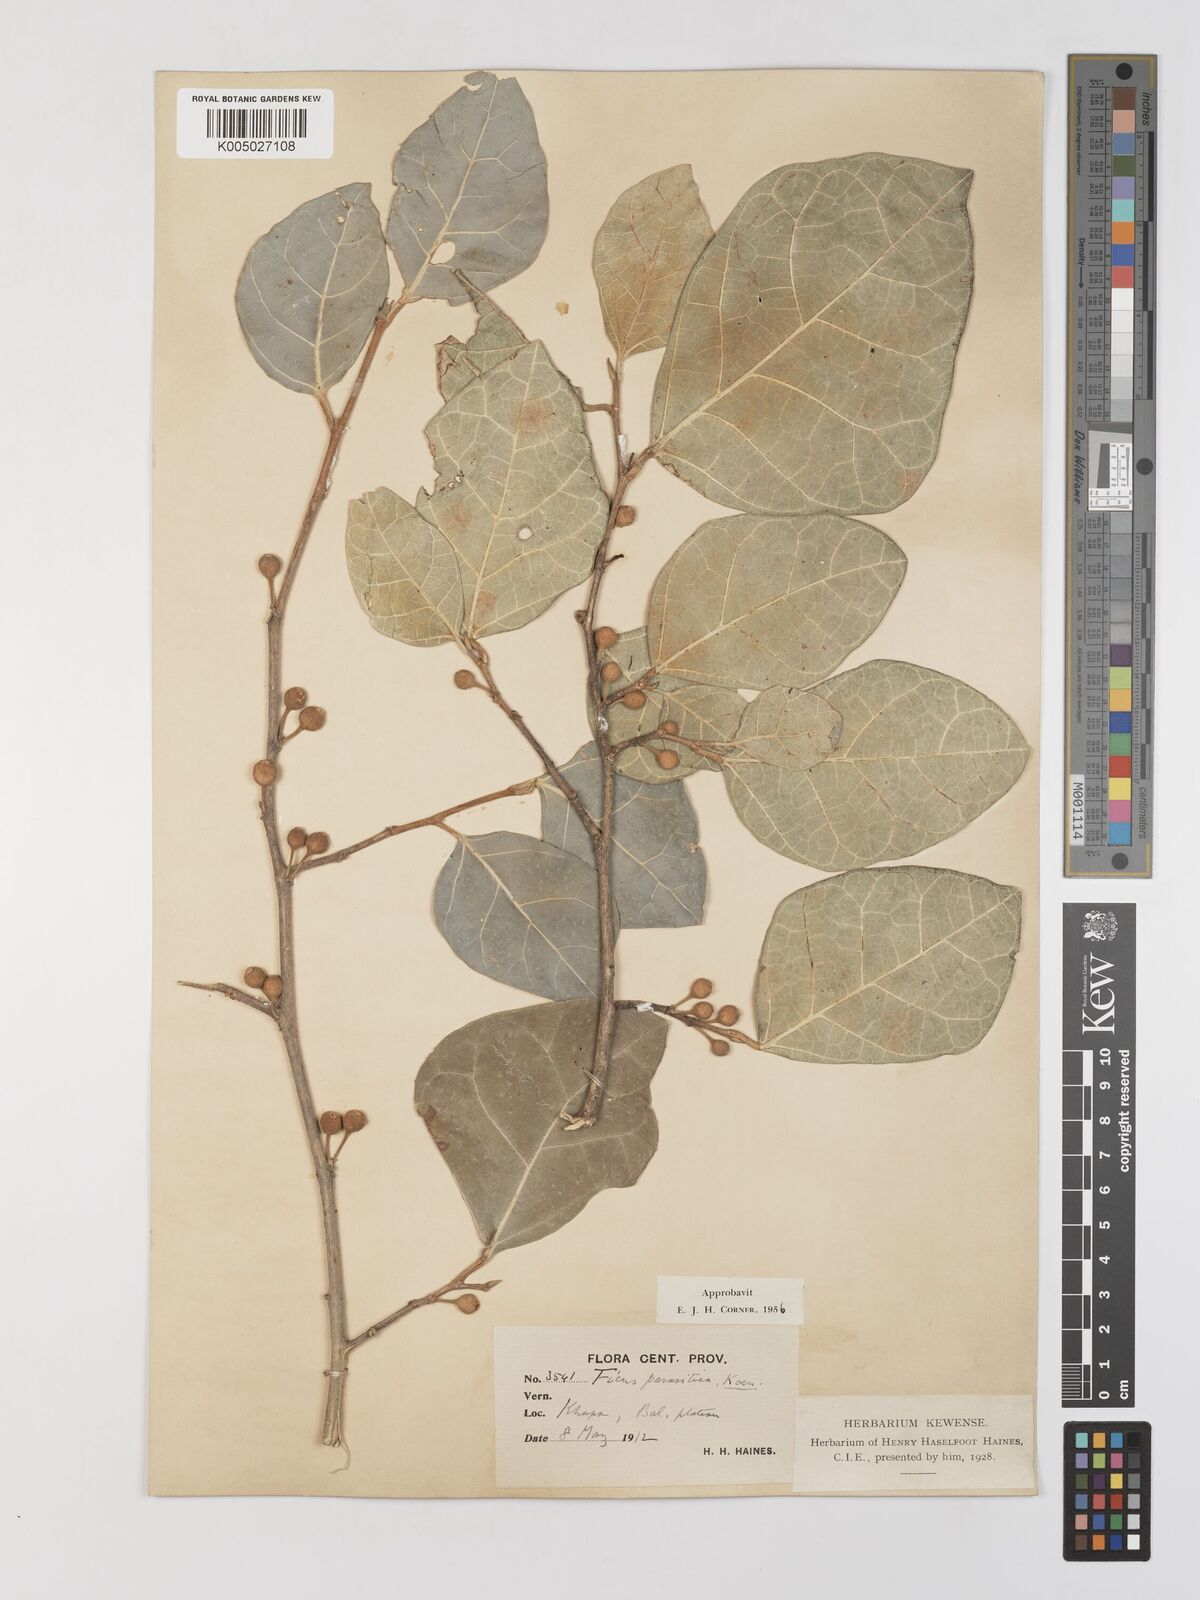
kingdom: Plantae
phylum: Tracheophyta
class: Magnoliopsida
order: Rosales
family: Moraceae
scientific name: Moraceae
